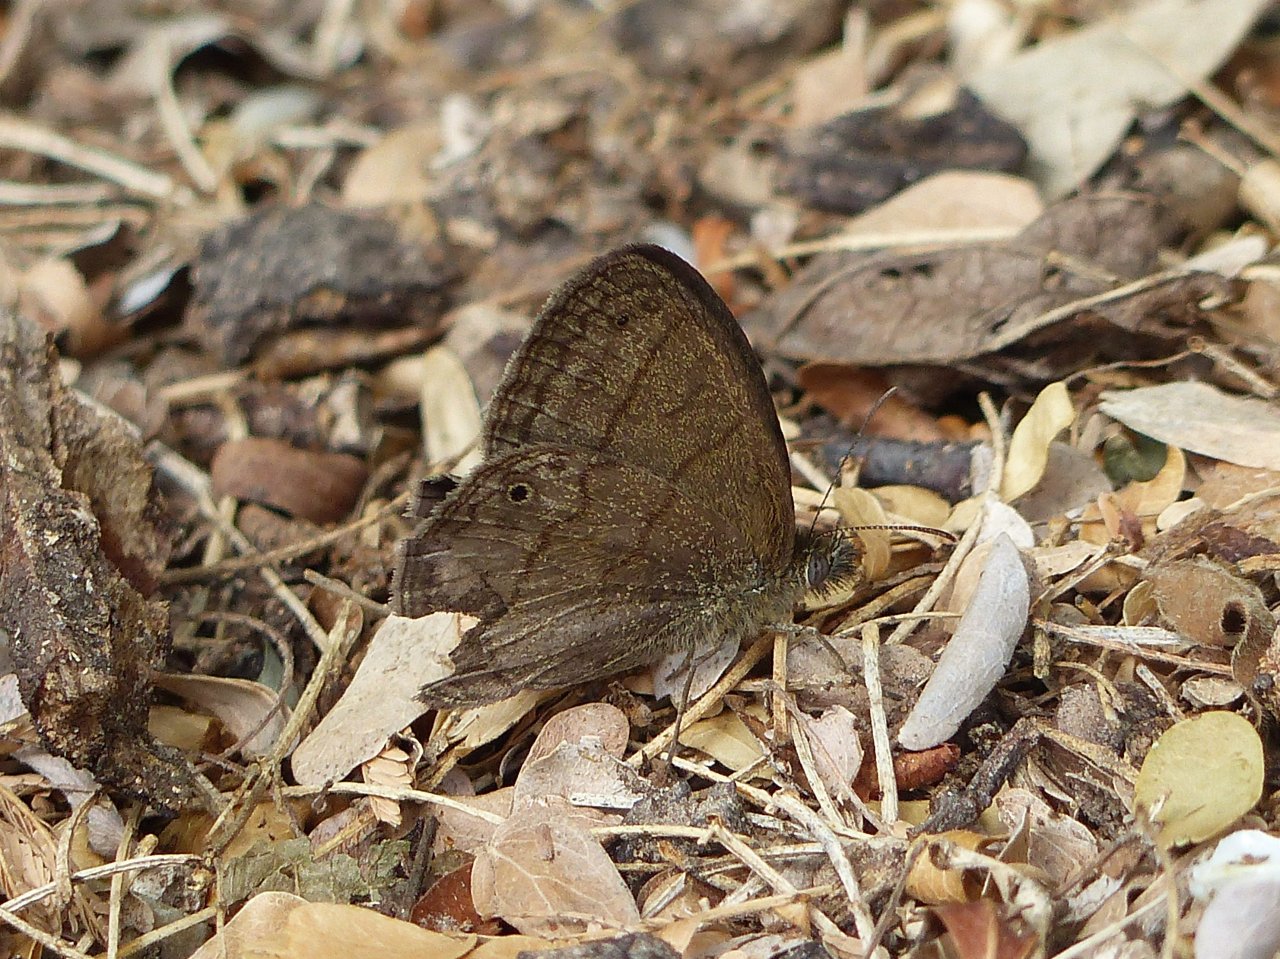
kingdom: Animalia
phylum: Arthropoda
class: Insecta
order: Lepidoptera
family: Nymphalidae
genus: Hermeuptychia
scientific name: Hermeuptychia hermybius
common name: South Texas Satyr
